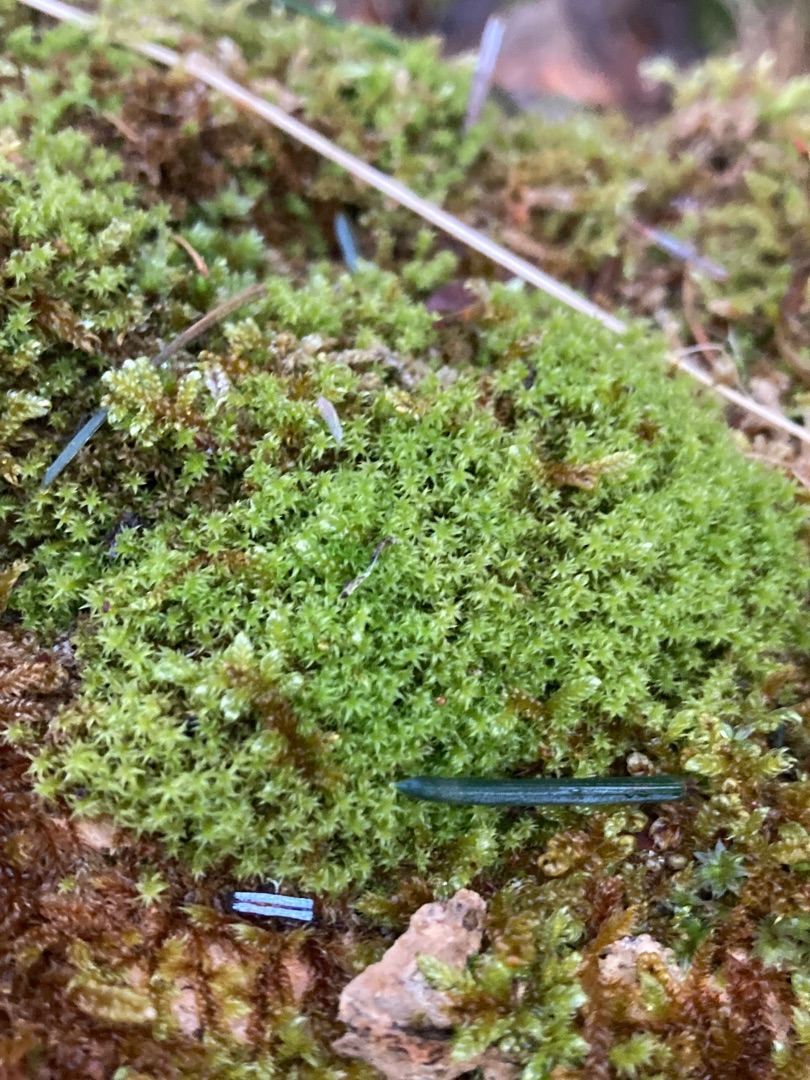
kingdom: Plantae
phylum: Bryophyta
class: Bryopsida
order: Orthotrichales
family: Orthotrichaceae
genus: Zygodon
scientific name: Zygodon rupestris
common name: Almindelig køllemos
